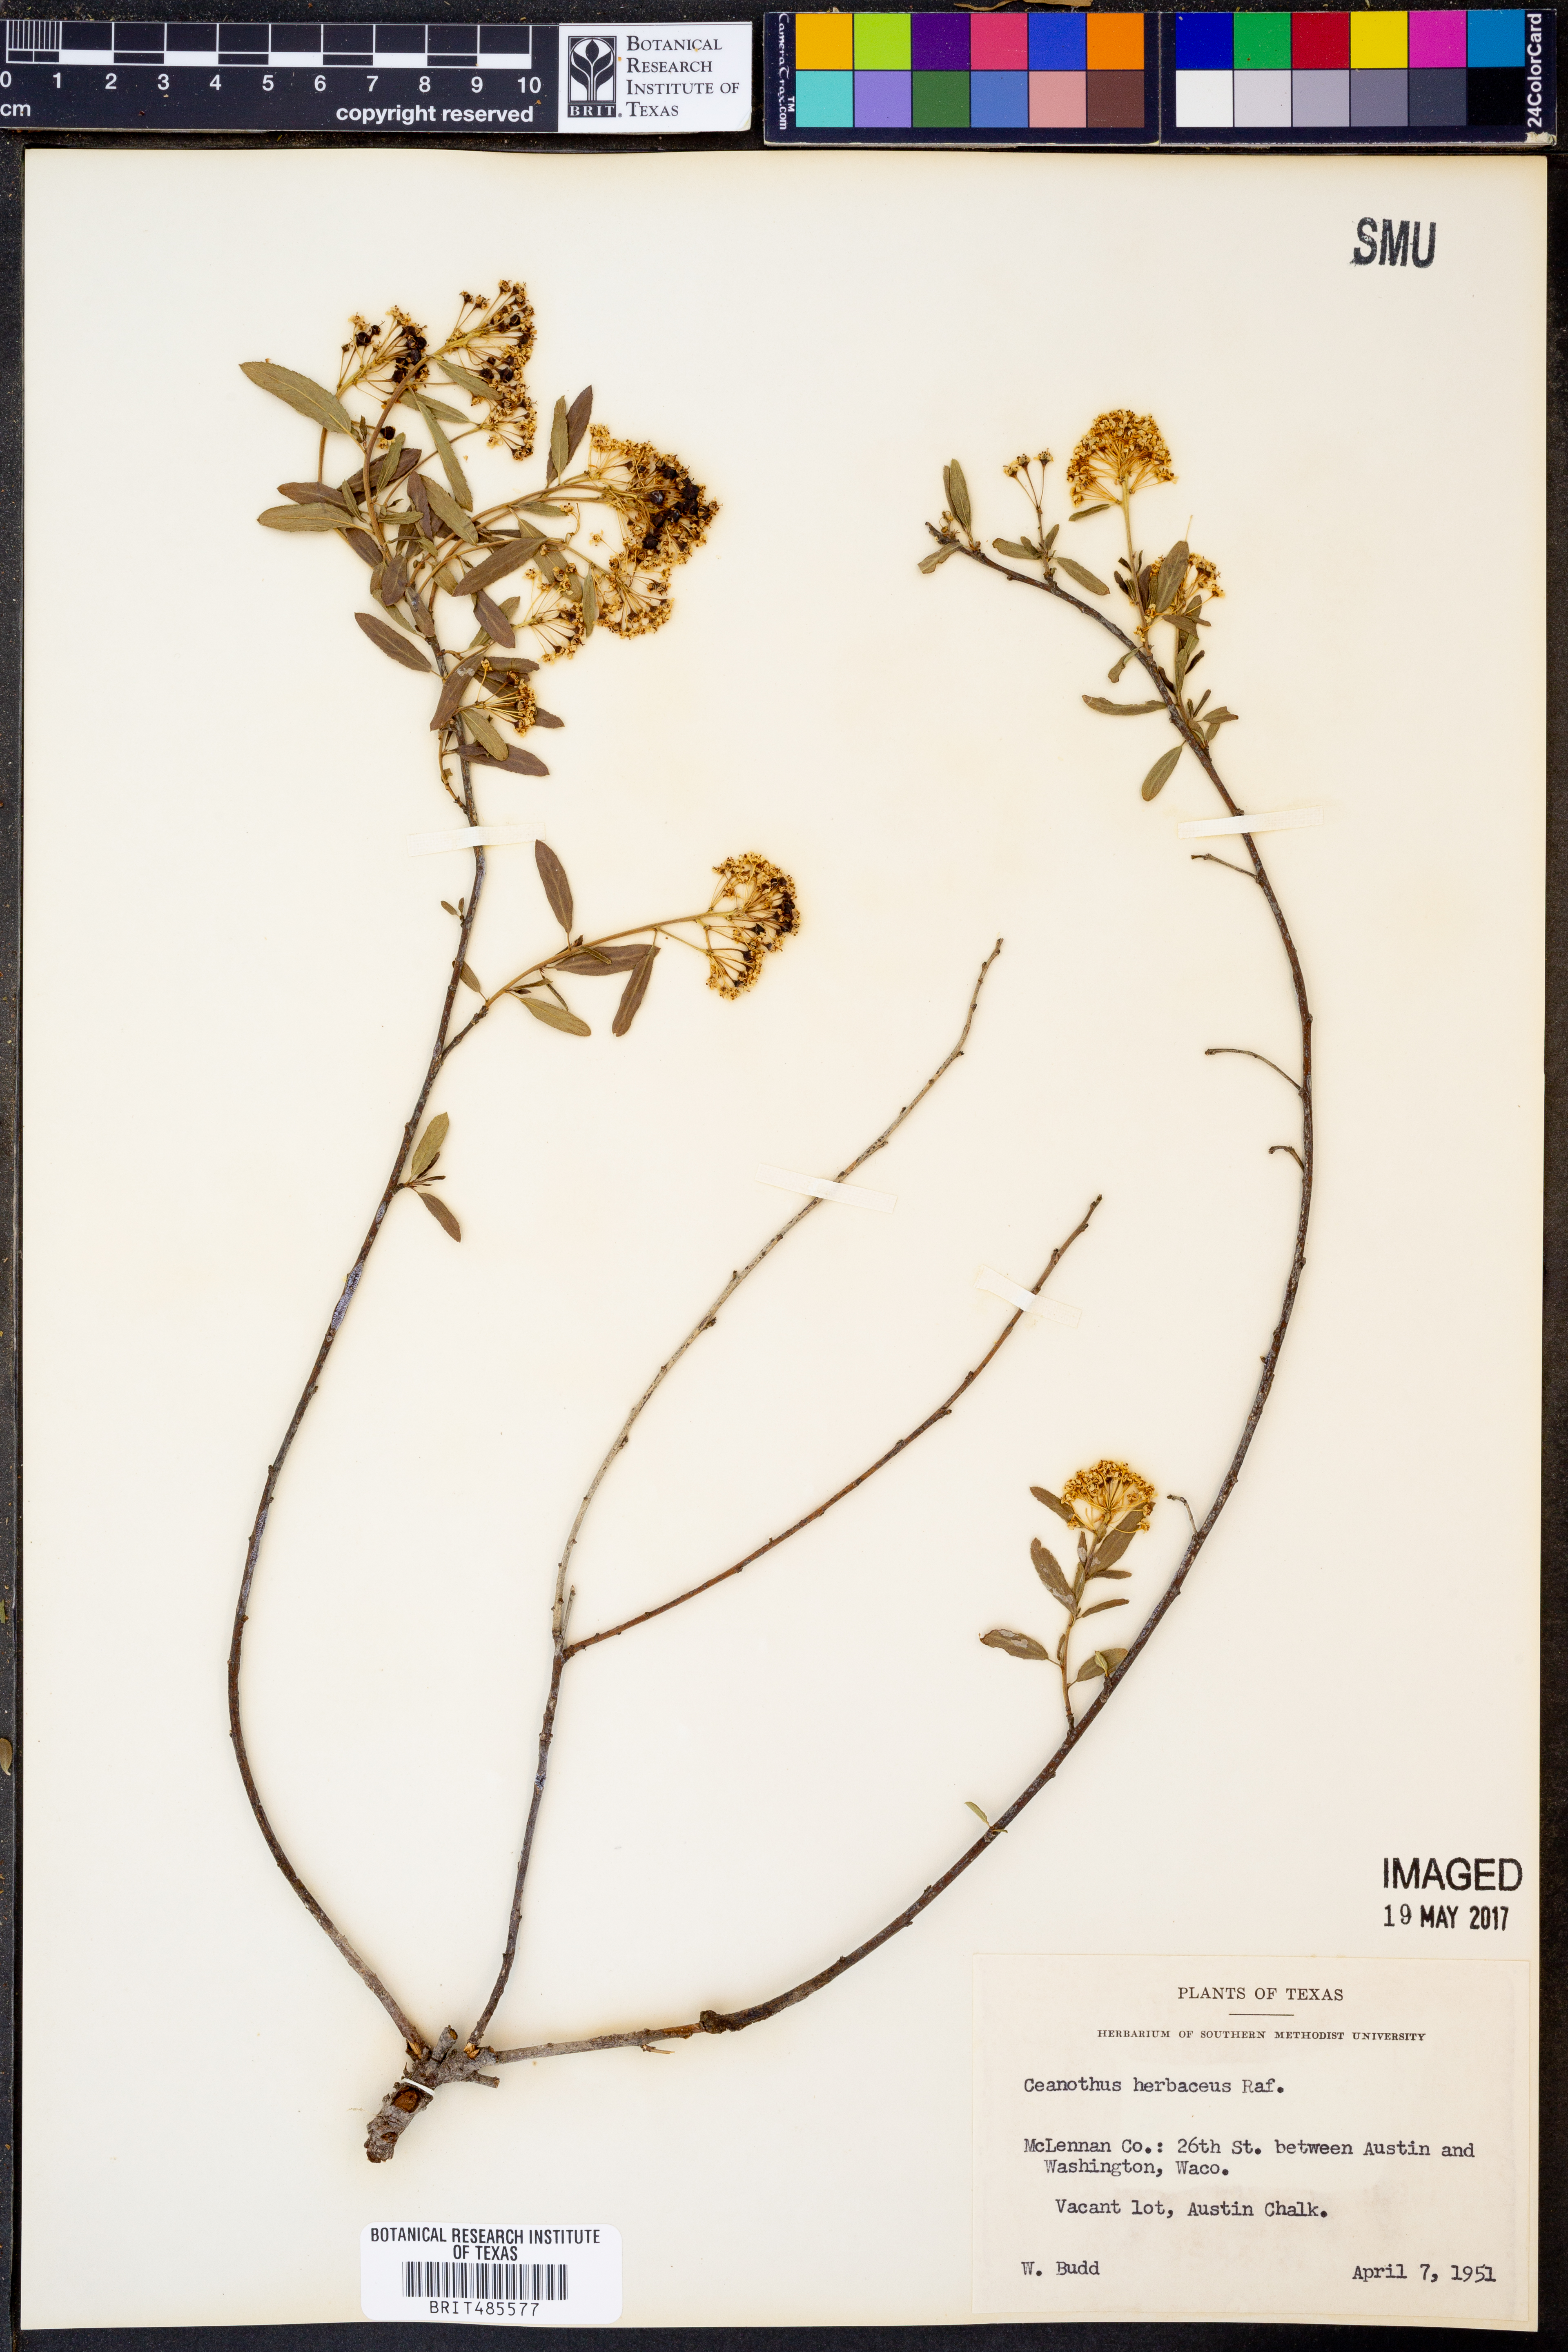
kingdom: Plantae
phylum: Tracheophyta
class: Magnoliopsida
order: Rosales
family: Rhamnaceae
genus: Ceanothus
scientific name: Ceanothus herbaceus
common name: Inland ceanothus
